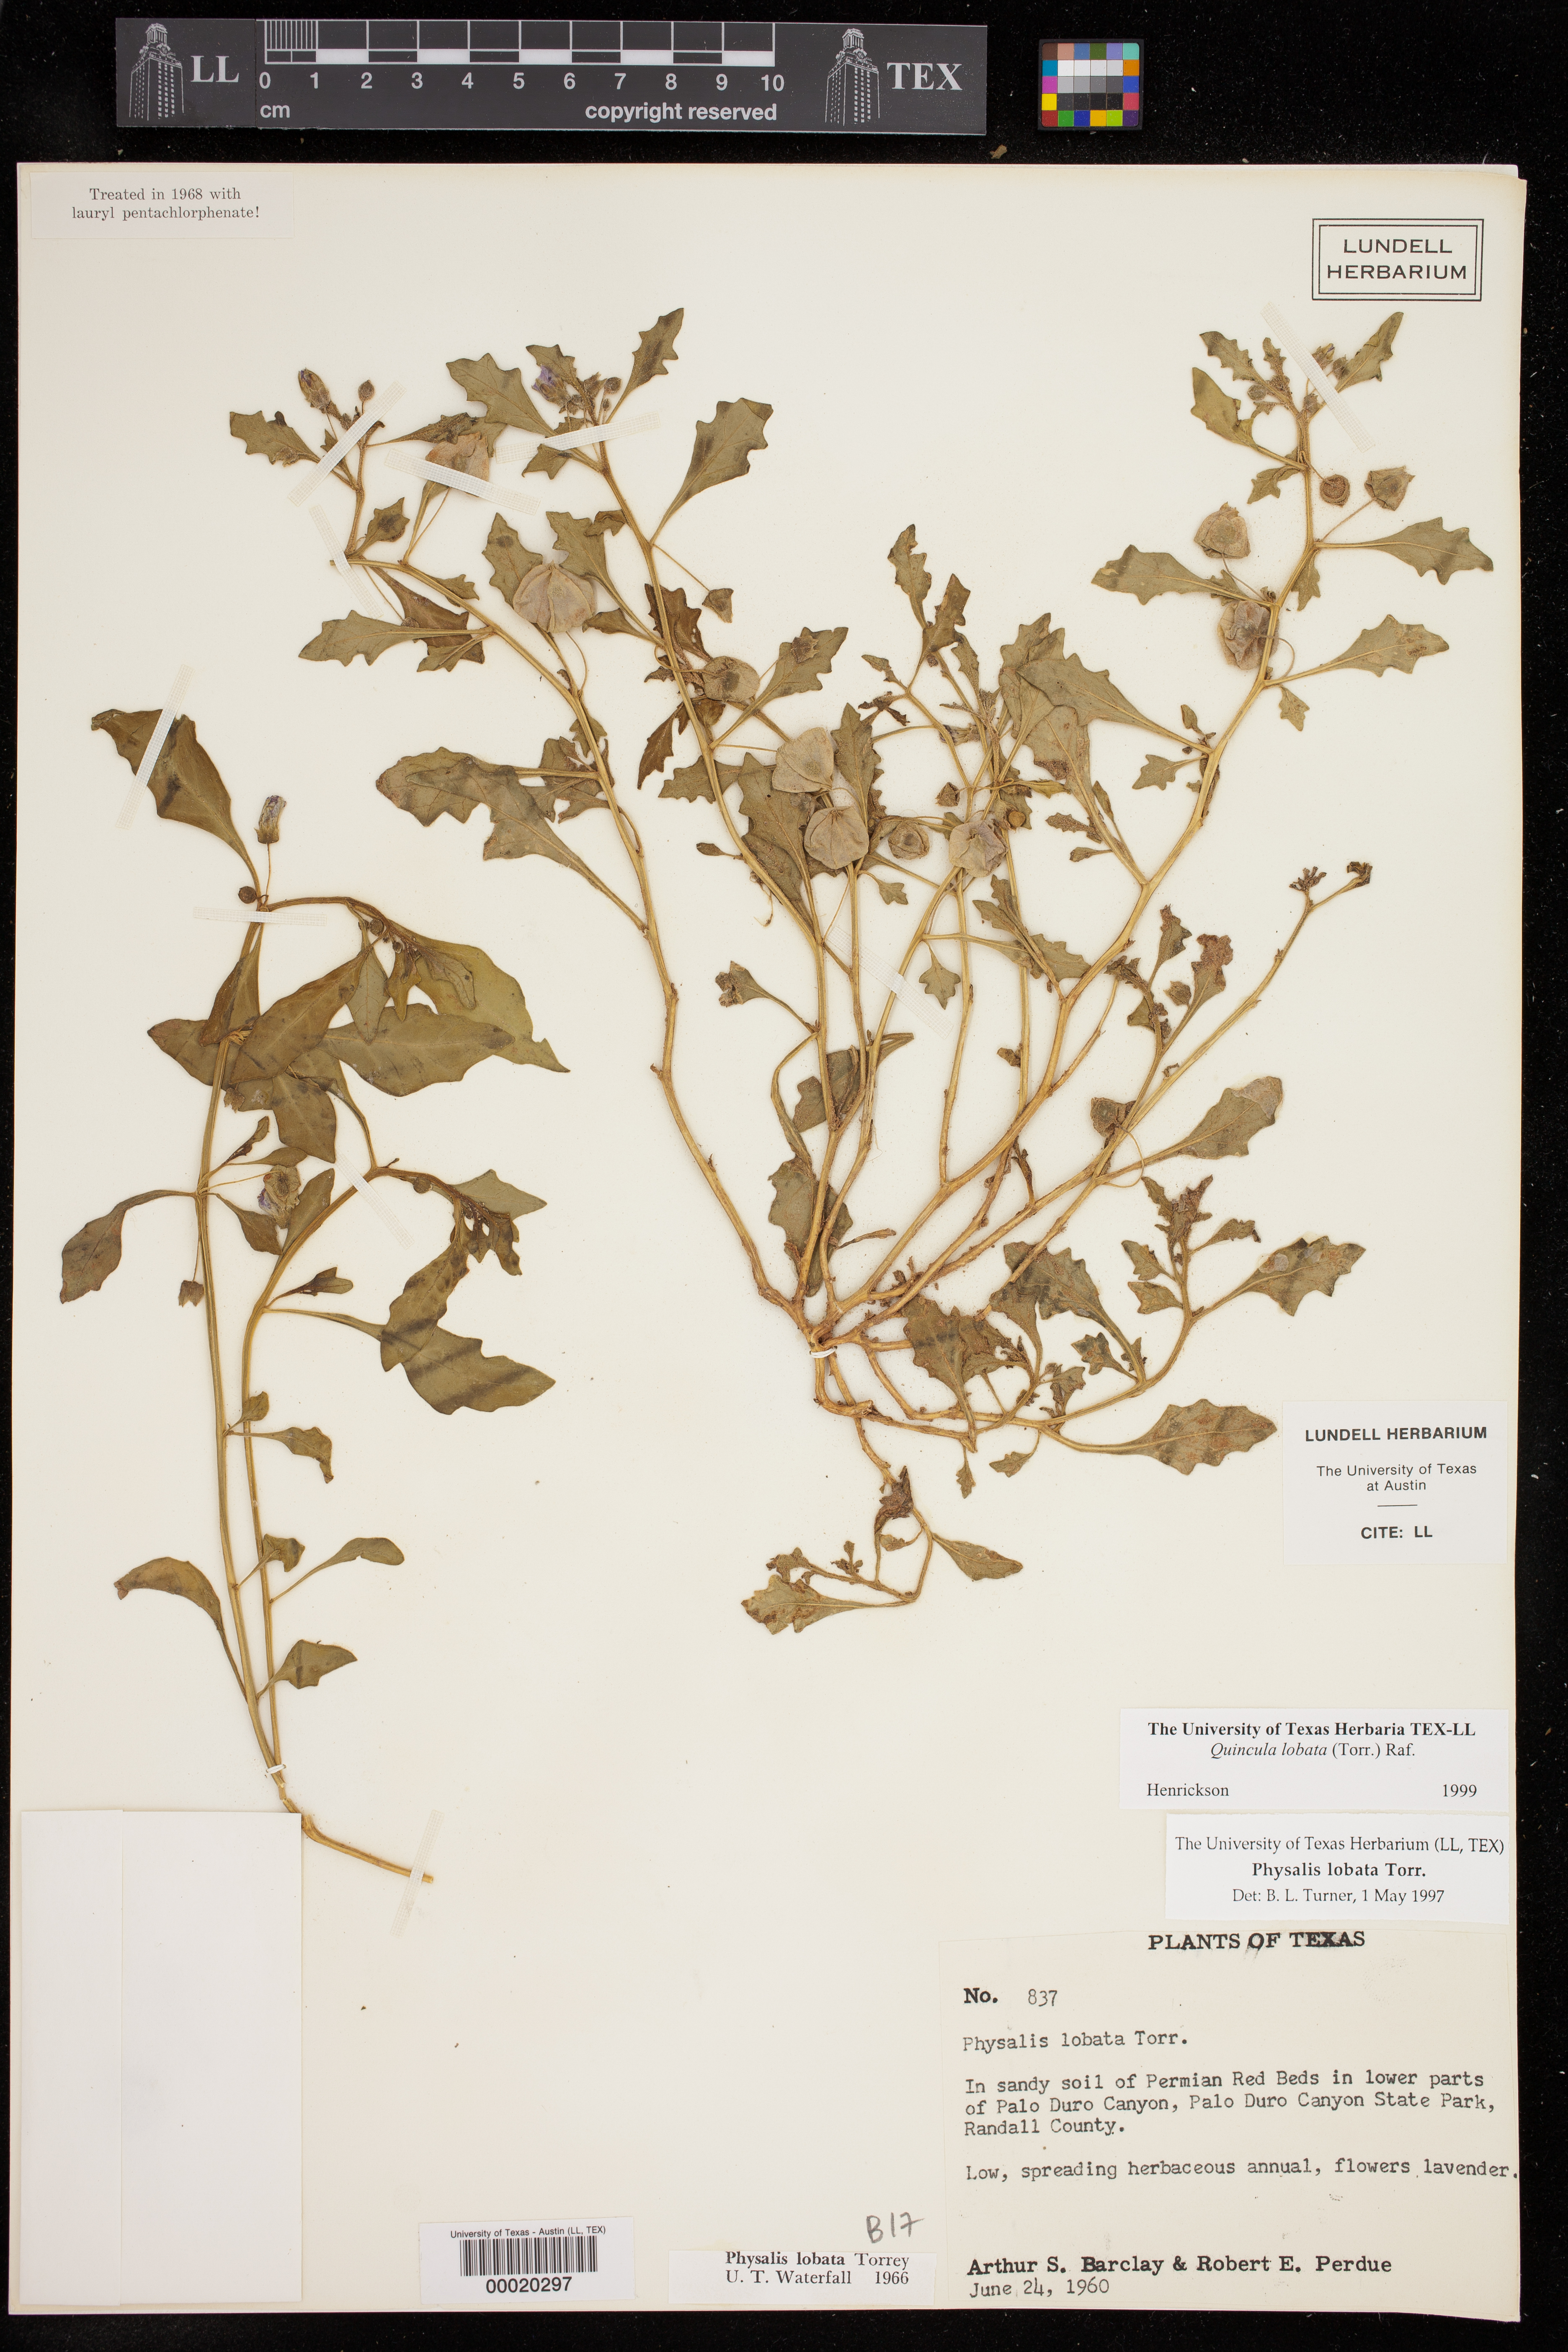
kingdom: Plantae
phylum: Tracheophyta
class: Magnoliopsida
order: Solanales
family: Solanaceae
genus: Quincula
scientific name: Quincula lobata
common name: Purple-ground-cherry
